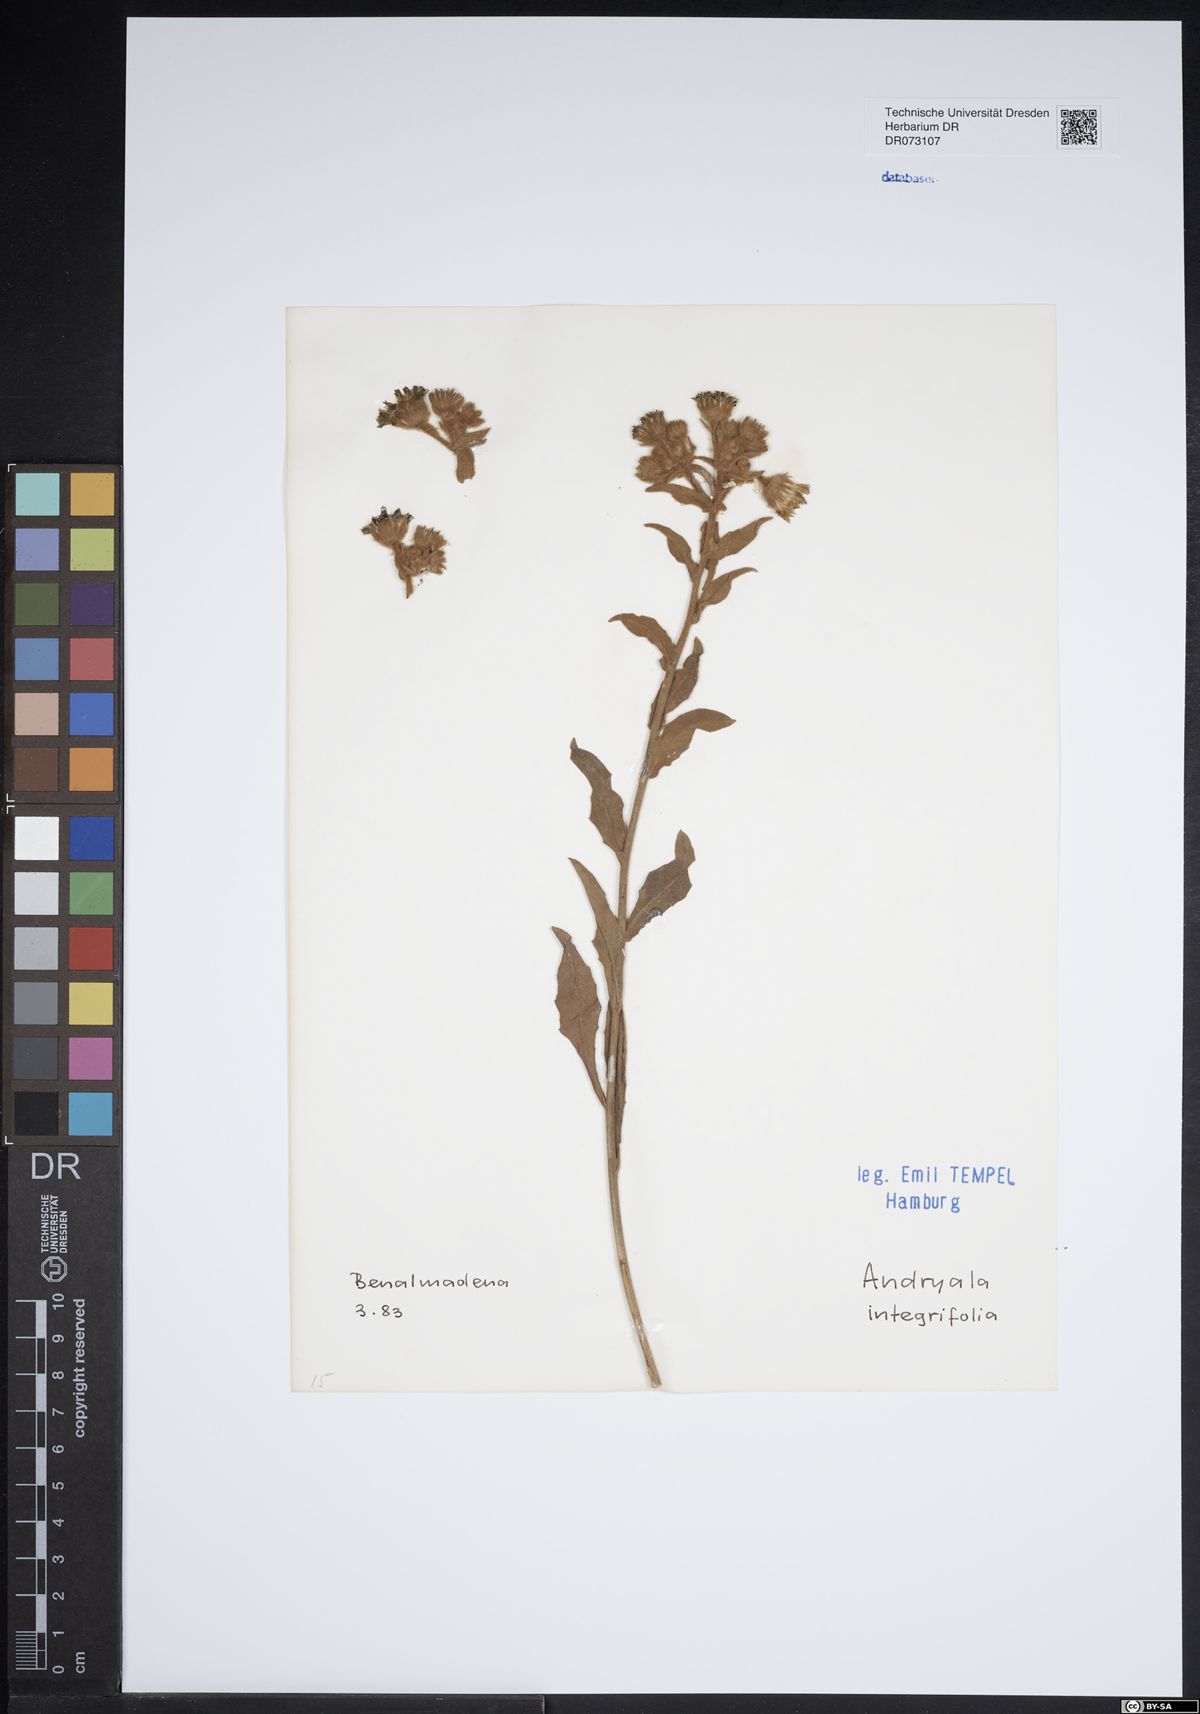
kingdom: Plantae
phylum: Tracheophyta
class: Magnoliopsida
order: Asterales
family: Asteraceae
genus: Andryala
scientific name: Andryala integrifolia
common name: Common andryala
